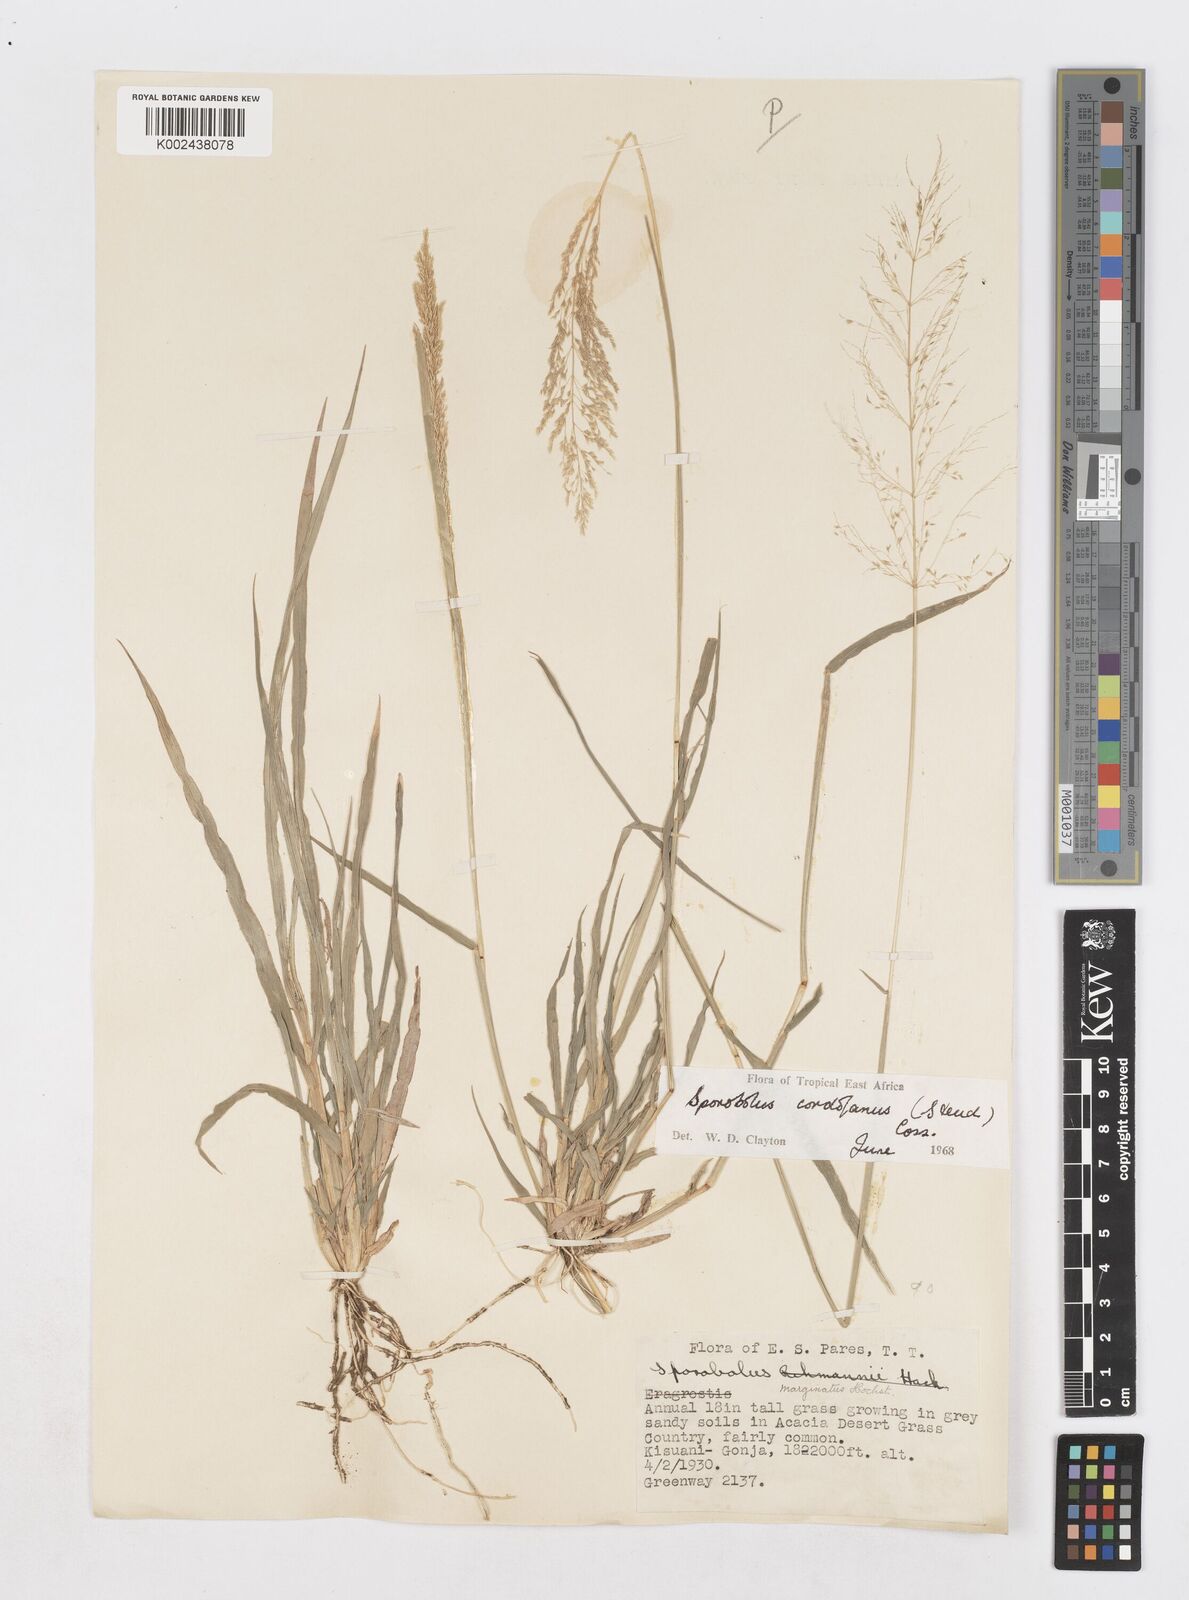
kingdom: Plantae
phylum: Tracheophyta
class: Liliopsida
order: Poales
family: Poaceae
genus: Sporobolus
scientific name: Sporobolus cordofanus
